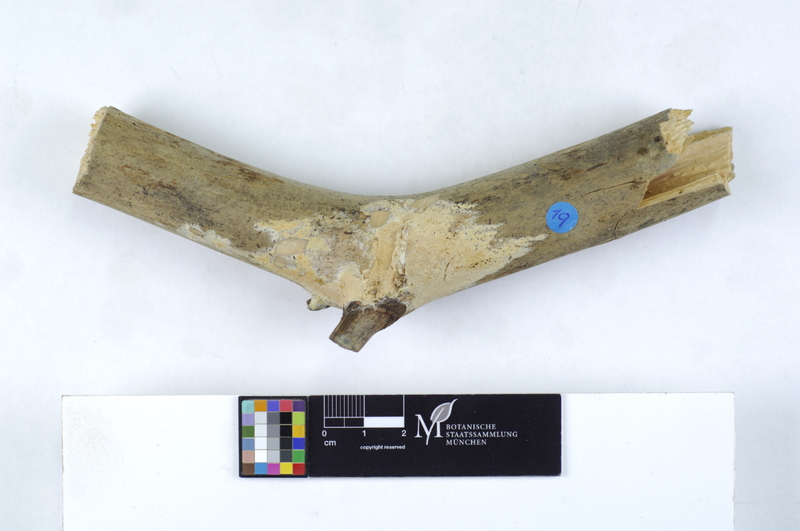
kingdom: Fungi
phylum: Basidiomycota
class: Agaricomycetes
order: Polyporales
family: Irpicaceae
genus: Byssomerulius
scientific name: Byssomerulius
